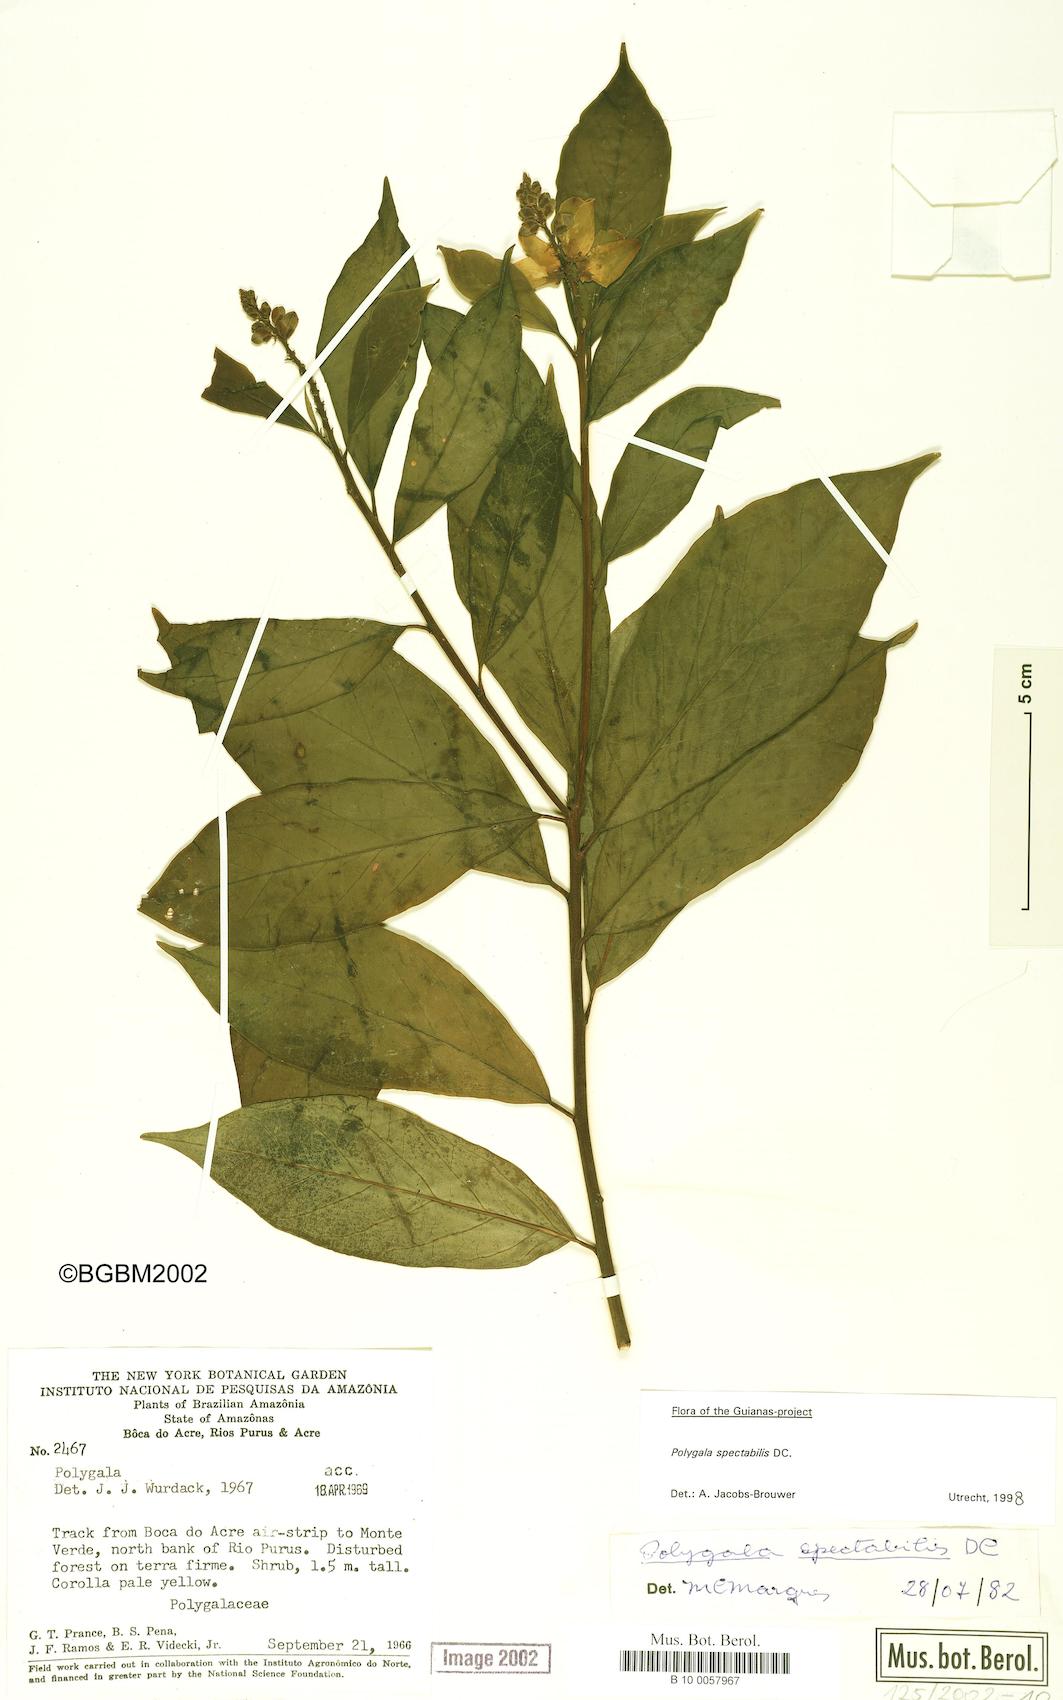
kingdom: Plantae
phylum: Tracheophyta
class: Magnoliopsida
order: Fabales
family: Polygalaceae
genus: Caamembeca
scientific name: Caamembeca spectabilis
